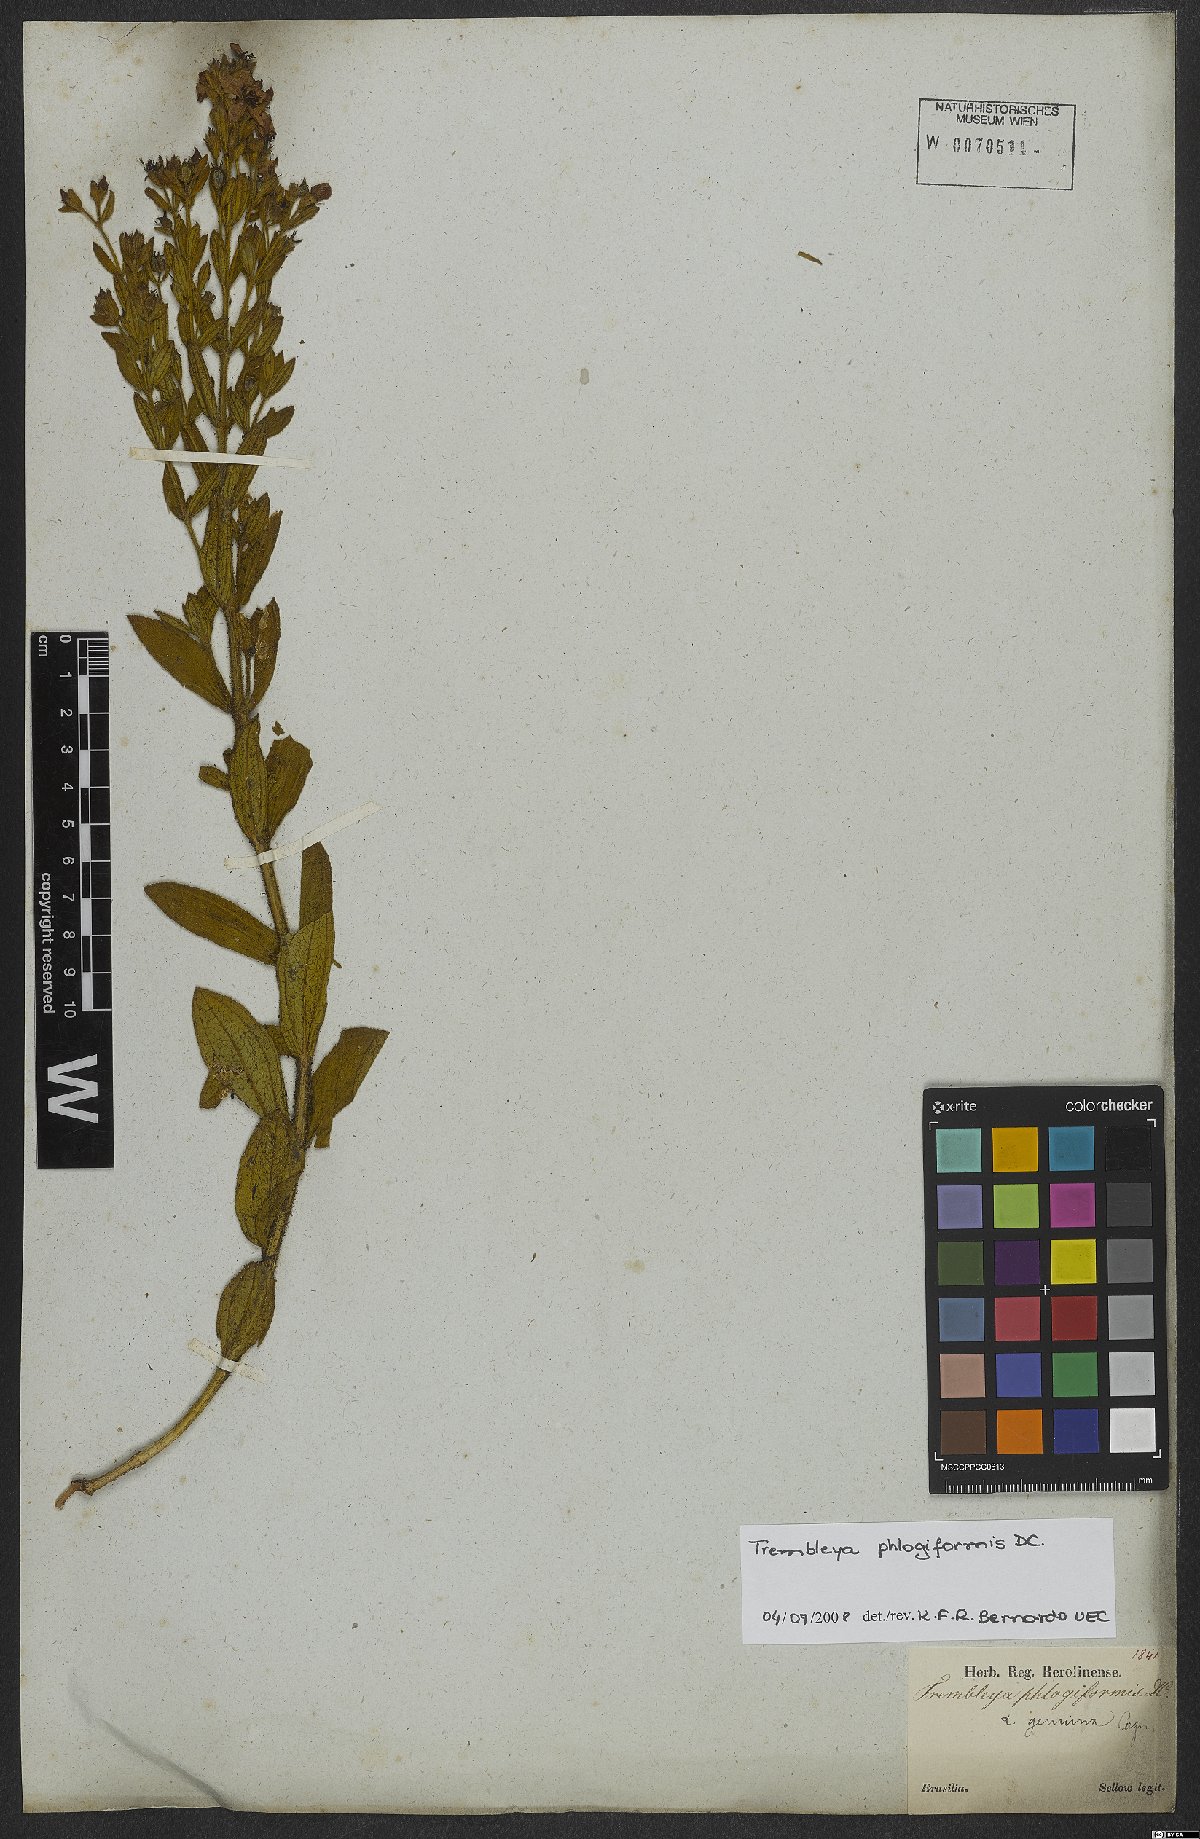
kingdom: Plantae
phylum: Tracheophyta
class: Magnoliopsida
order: Myrtales
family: Melastomataceae
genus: Microlicia
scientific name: Microlicia phlogiformis
